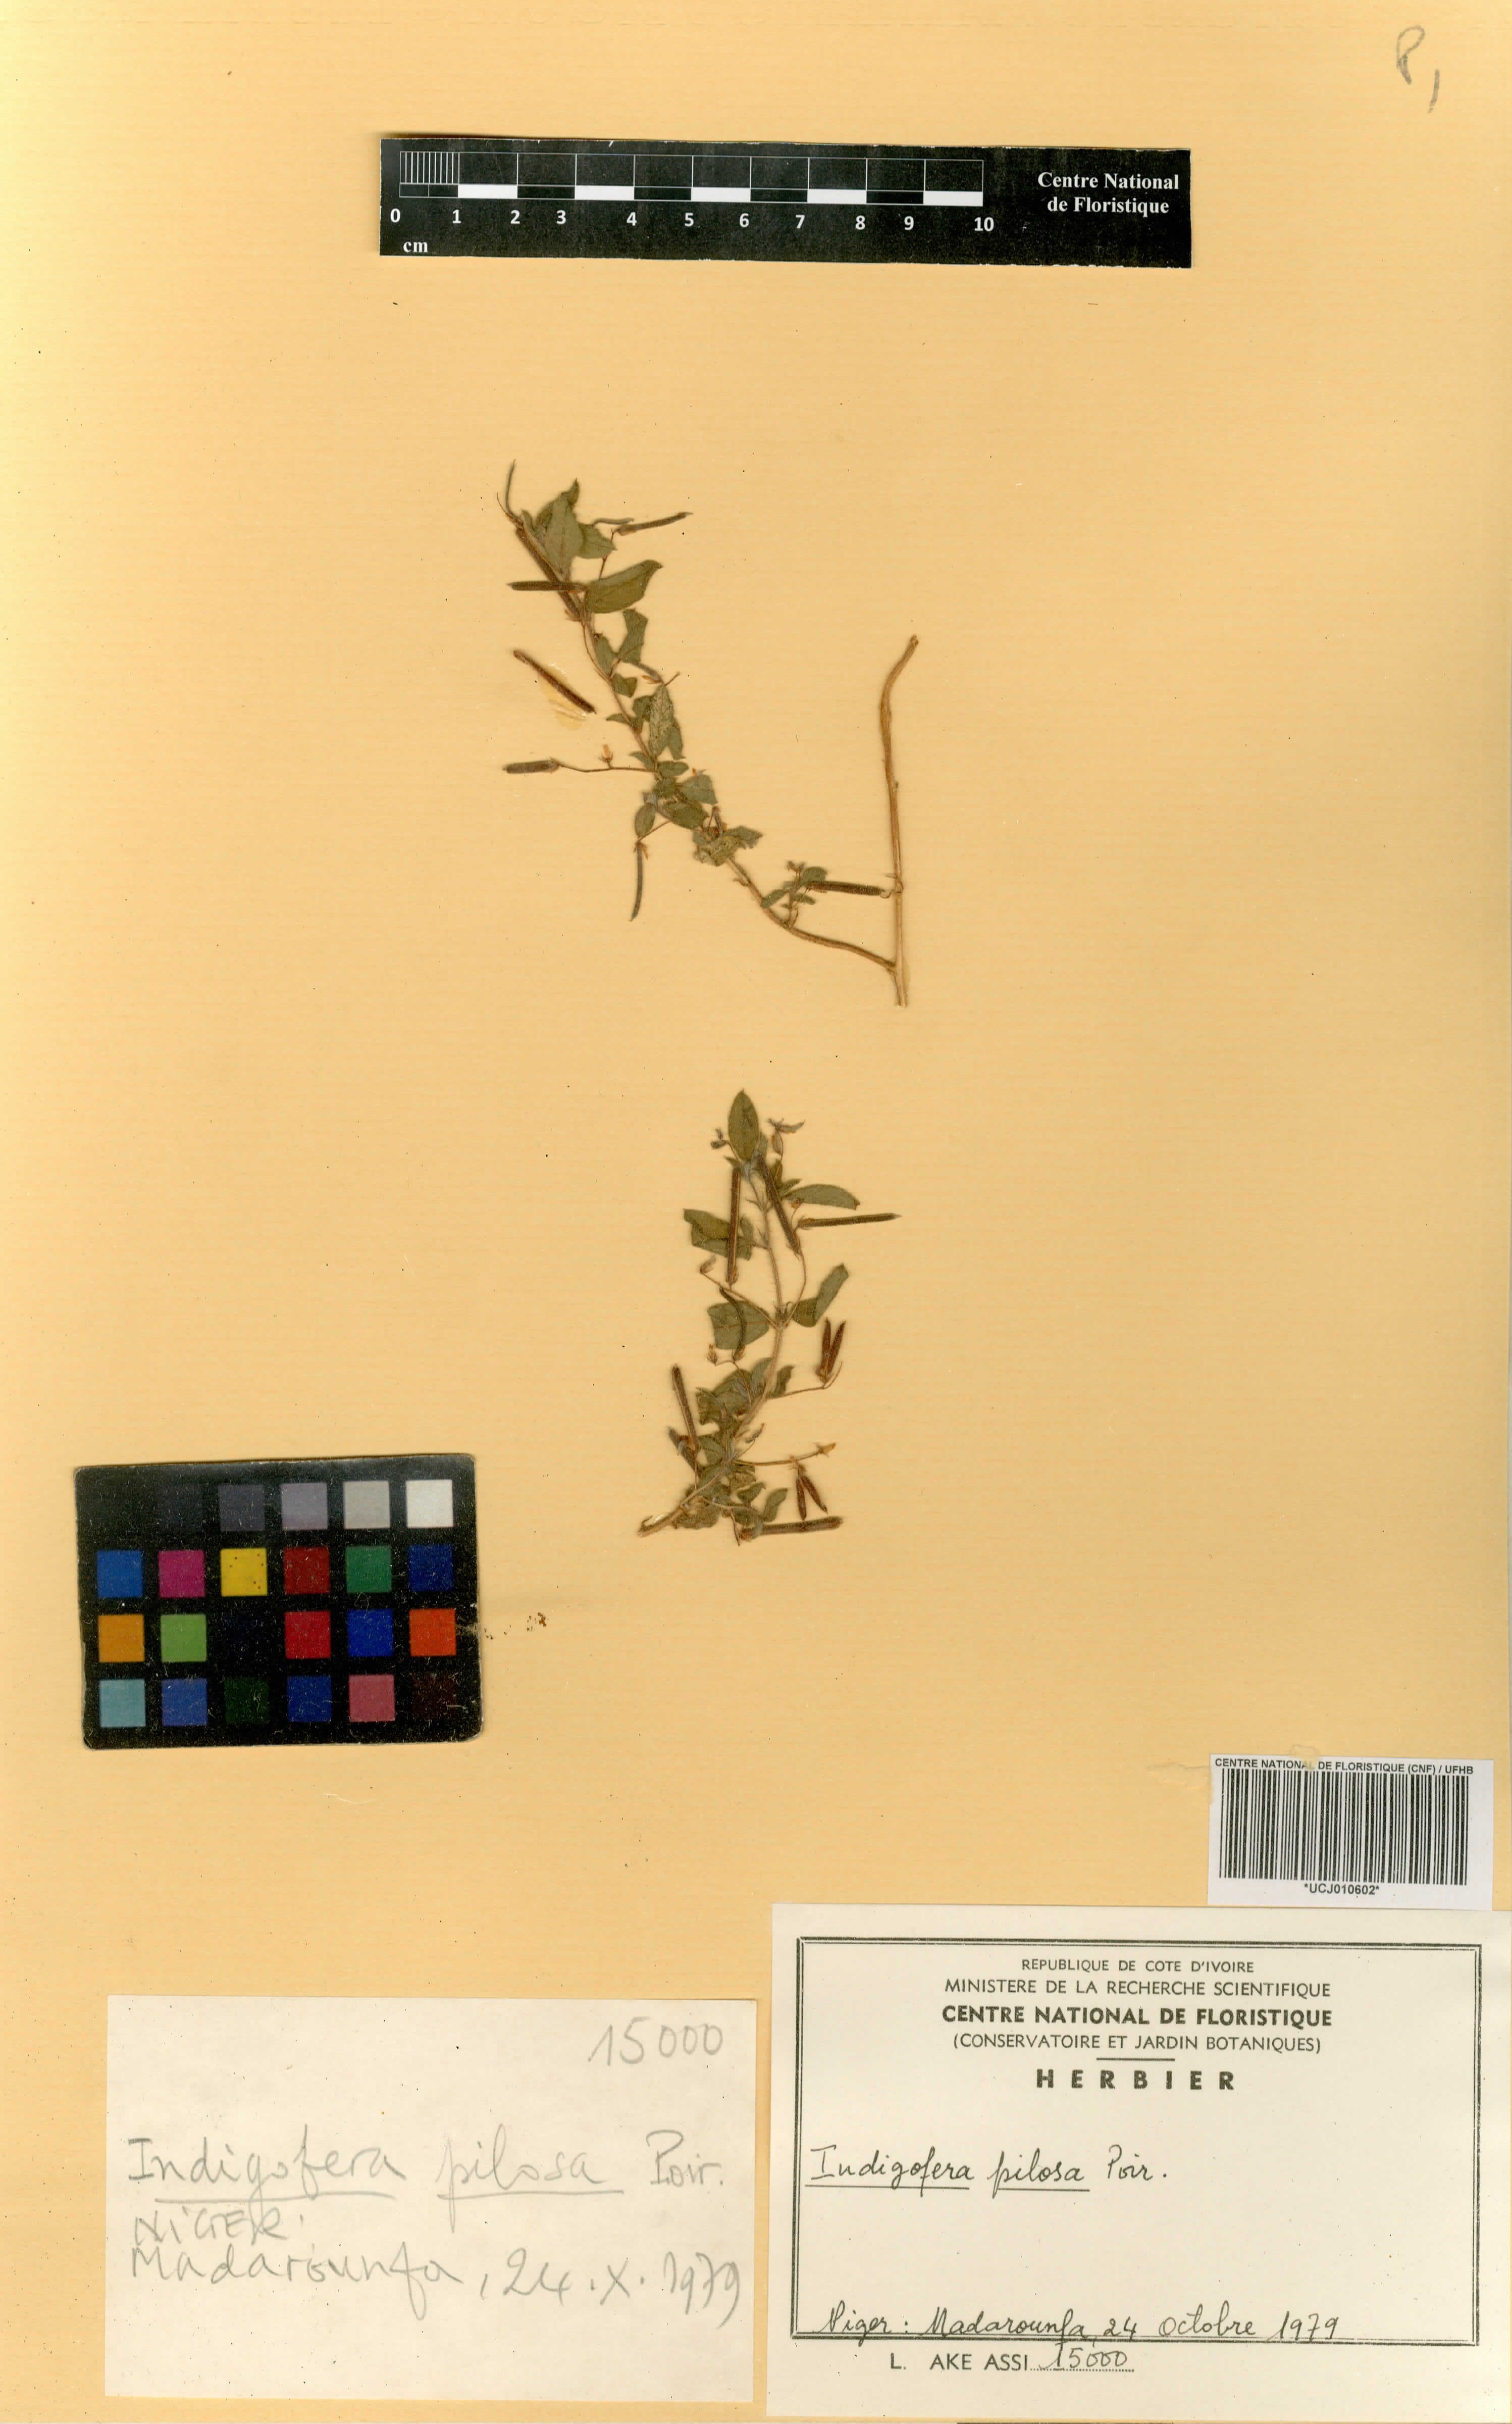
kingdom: Plantae
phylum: Tracheophyta
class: Magnoliopsida
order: Fabales
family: Fabaceae
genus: Indigofera
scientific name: Indigofera pilosa
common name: Softhairy indigo
